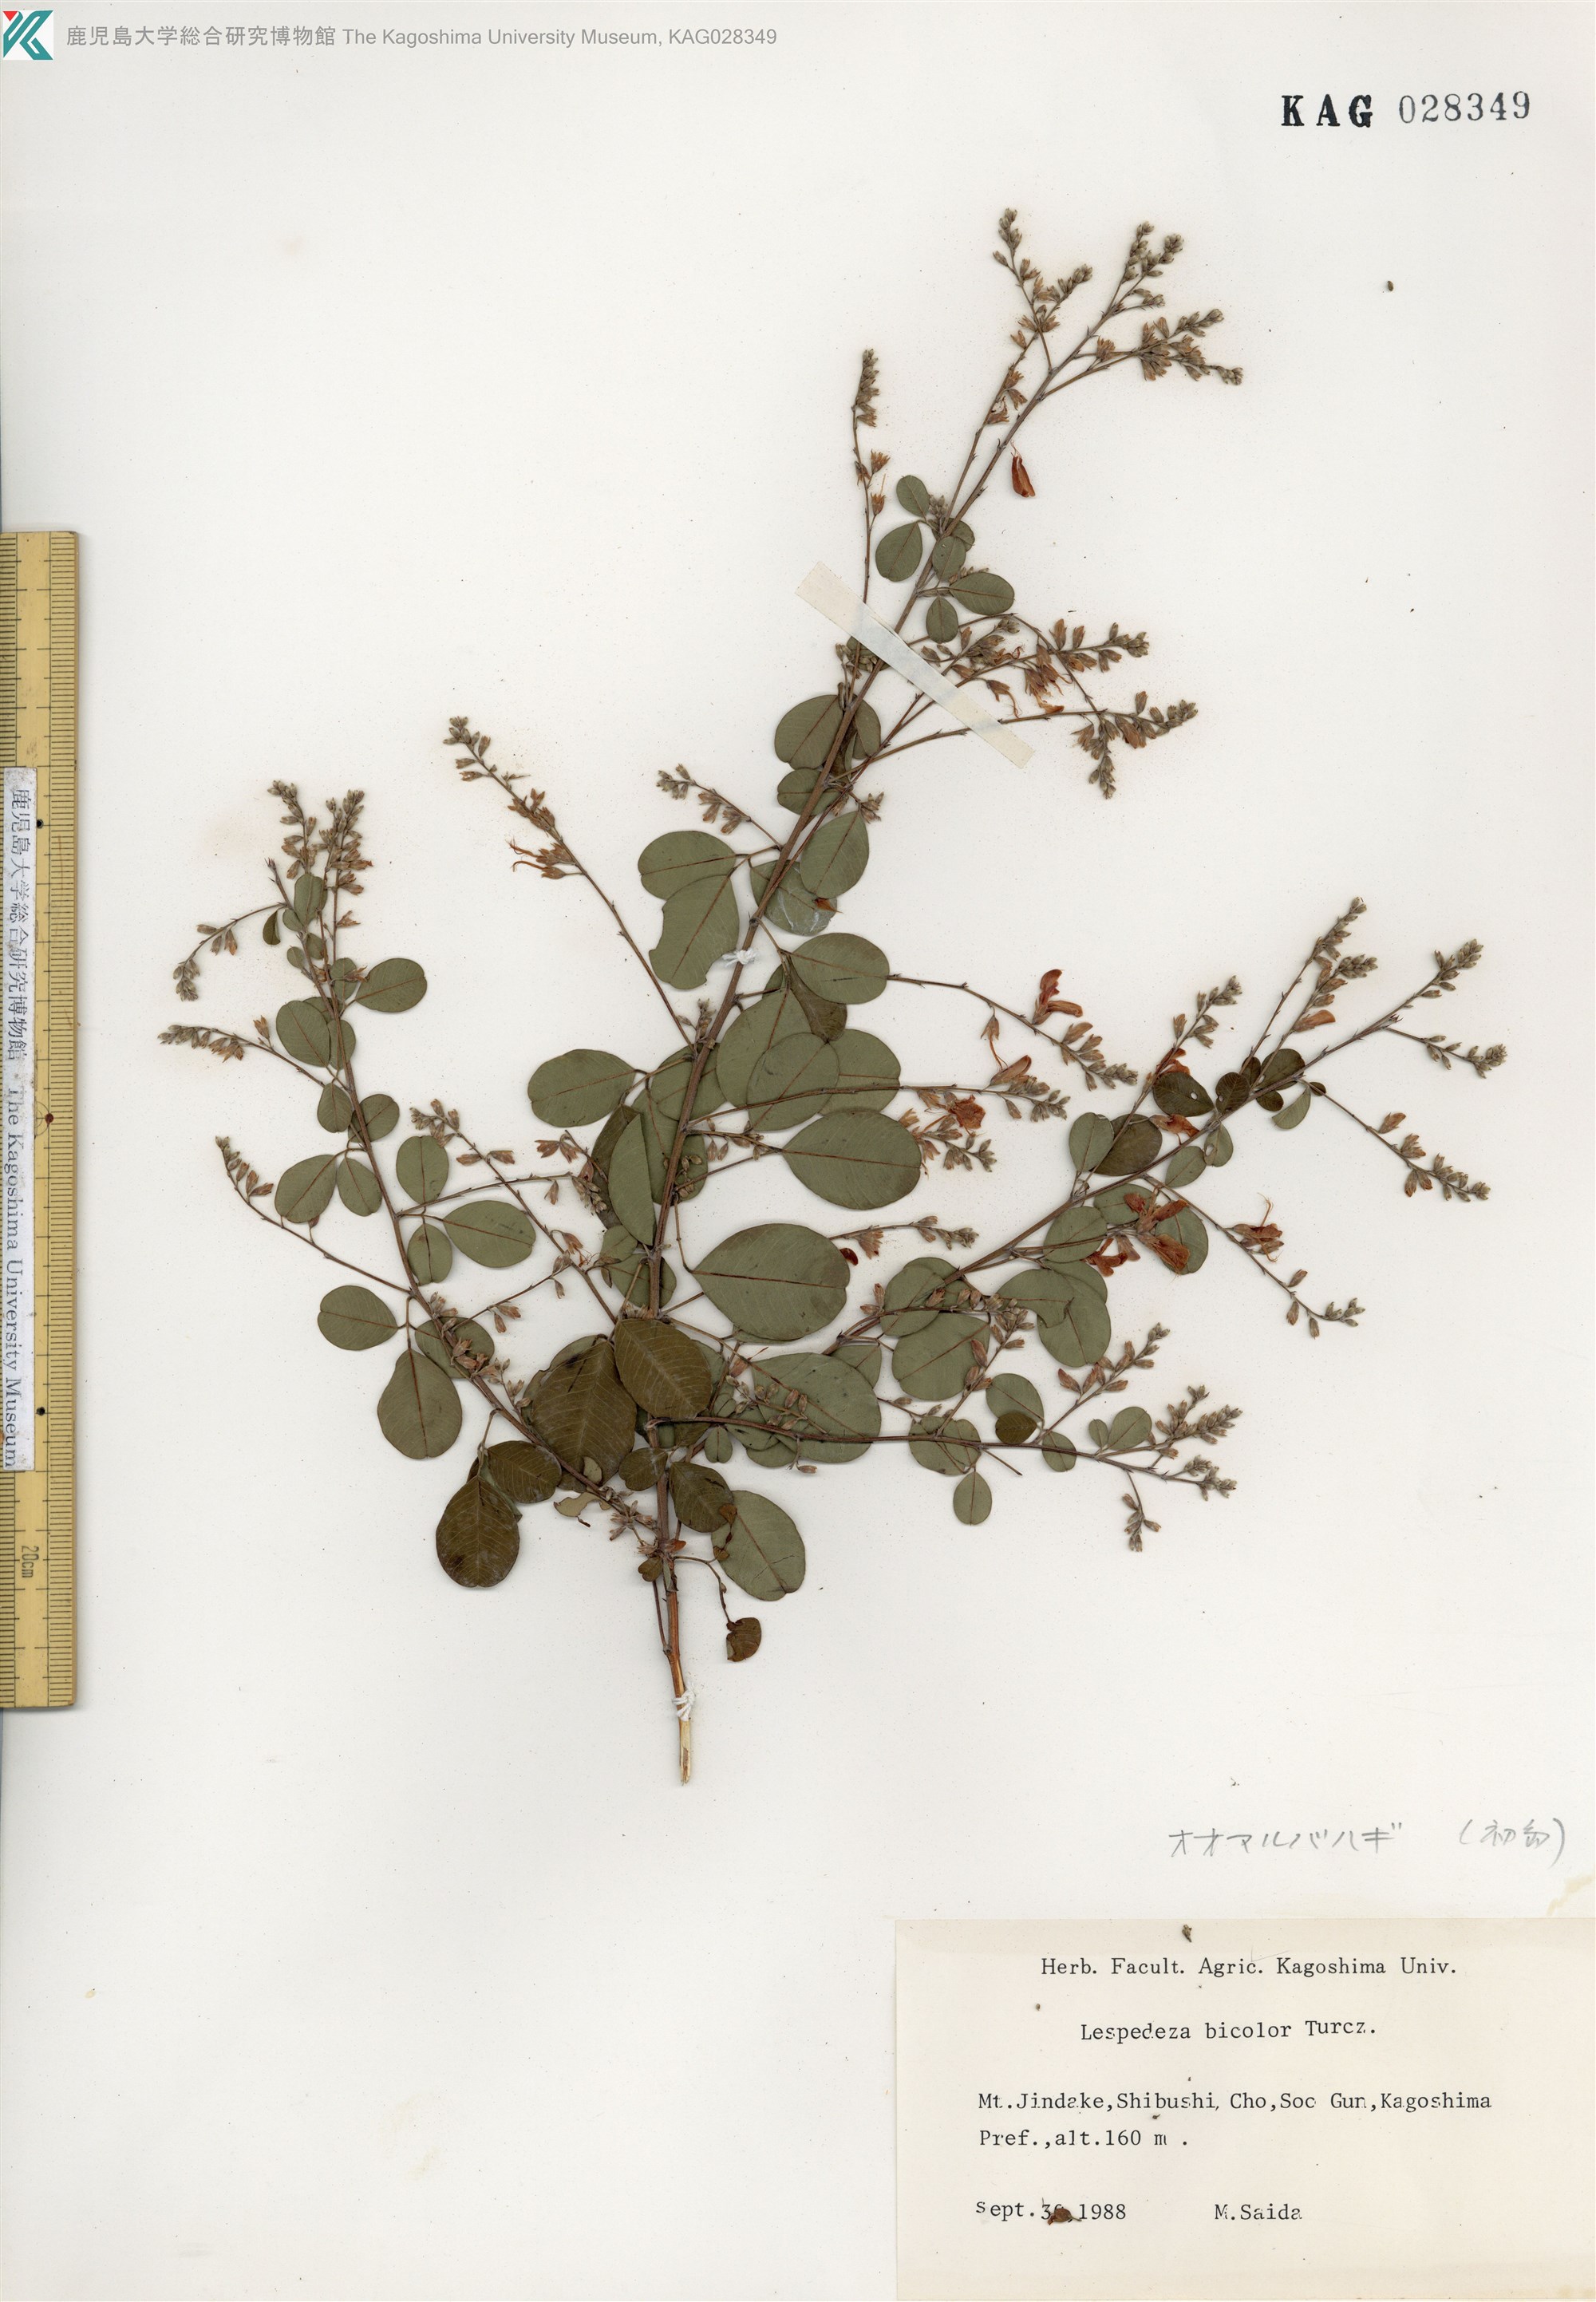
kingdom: Plantae
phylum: Tracheophyta
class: Magnoliopsida
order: Fabales
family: Fabaceae
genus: Lespedeza
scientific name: Lespedeza homoloba
